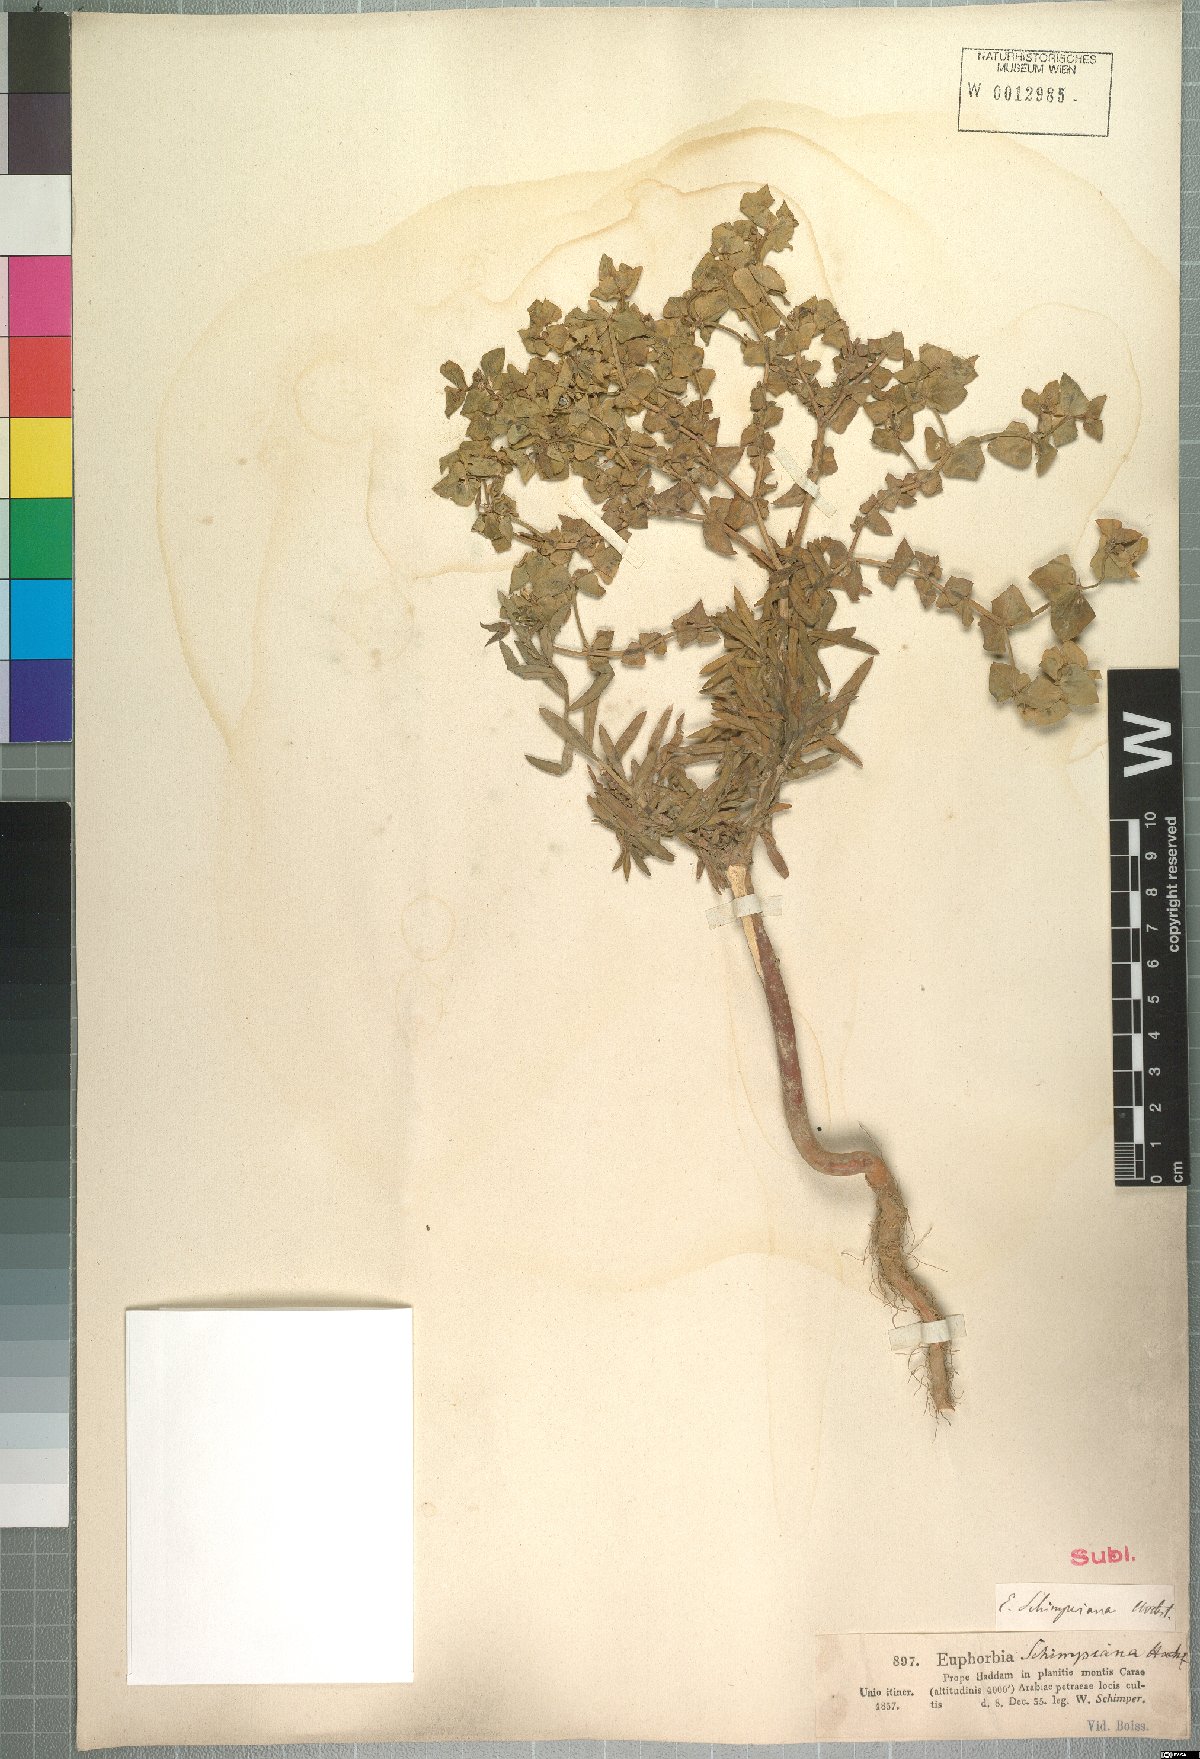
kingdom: Plantae
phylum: Tracheophyta
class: Magnoliopsida
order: Malpighiales
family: Euphorbiaceae
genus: Euphorbia
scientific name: Euphorbia schimperiana
